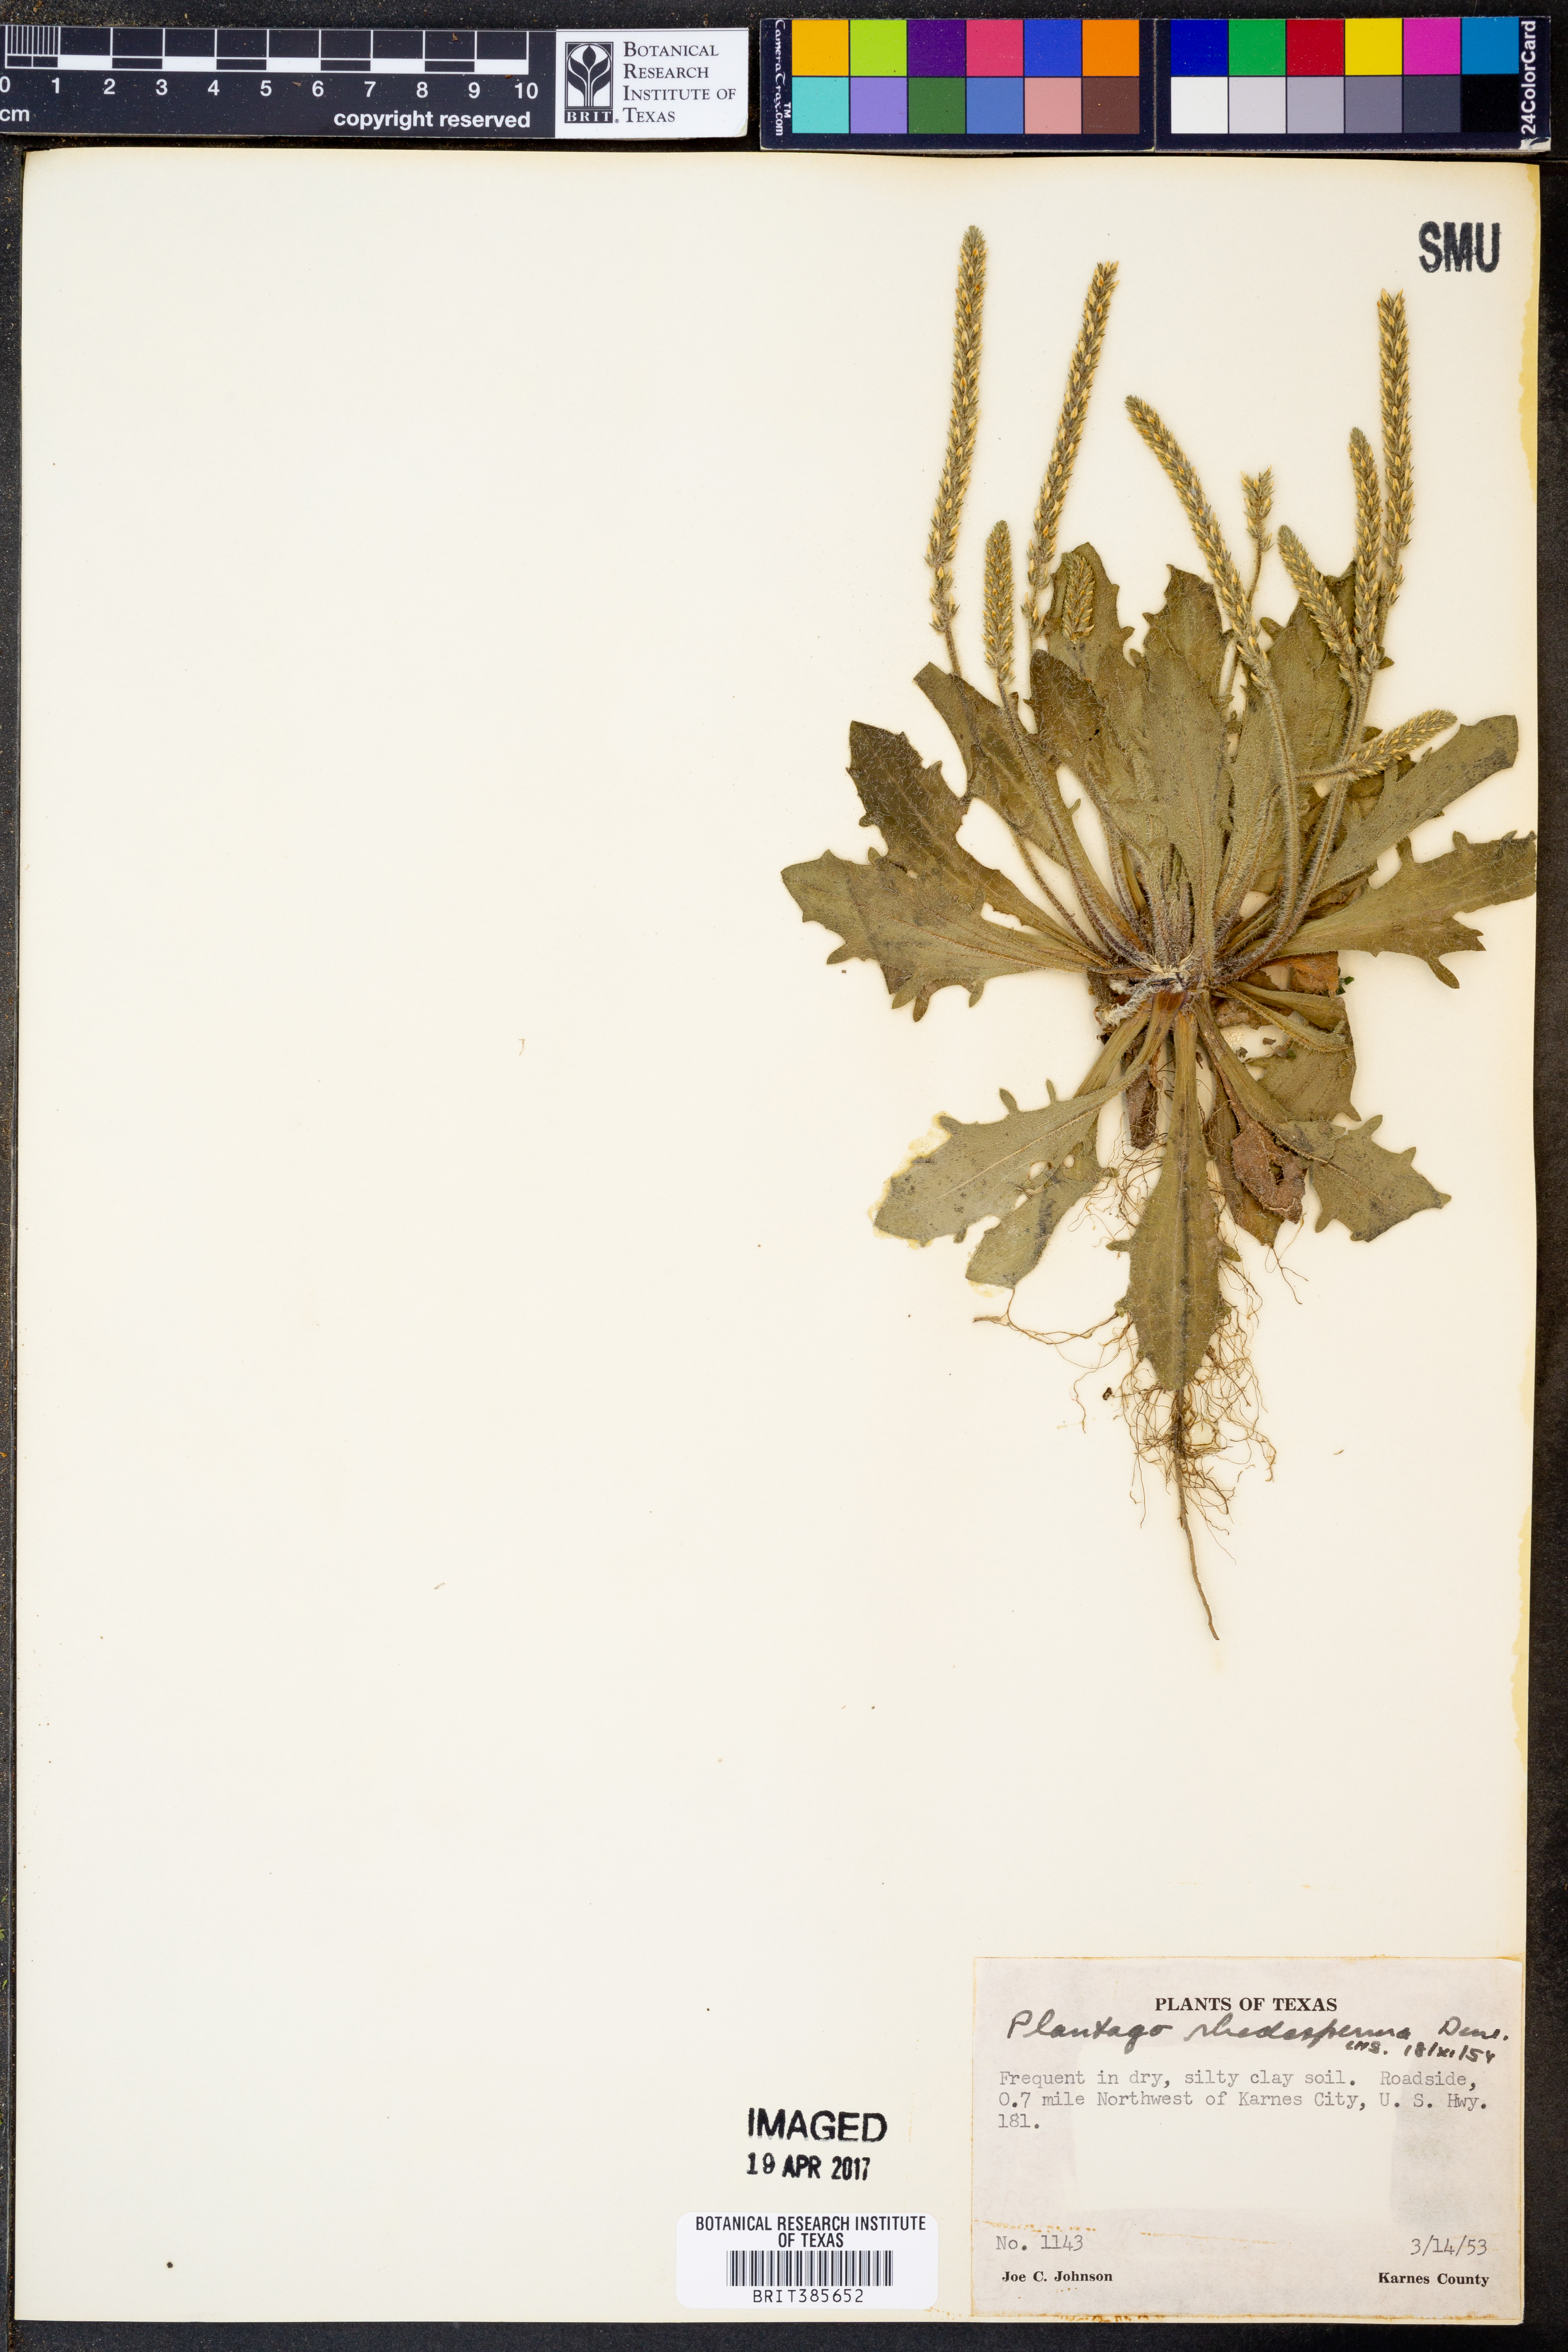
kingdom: Plantae
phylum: Tracheophyta
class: Magnoliopsida
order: Lamiales
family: Plantaginaceae
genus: Plantago
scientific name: Plantago rhodosperma
